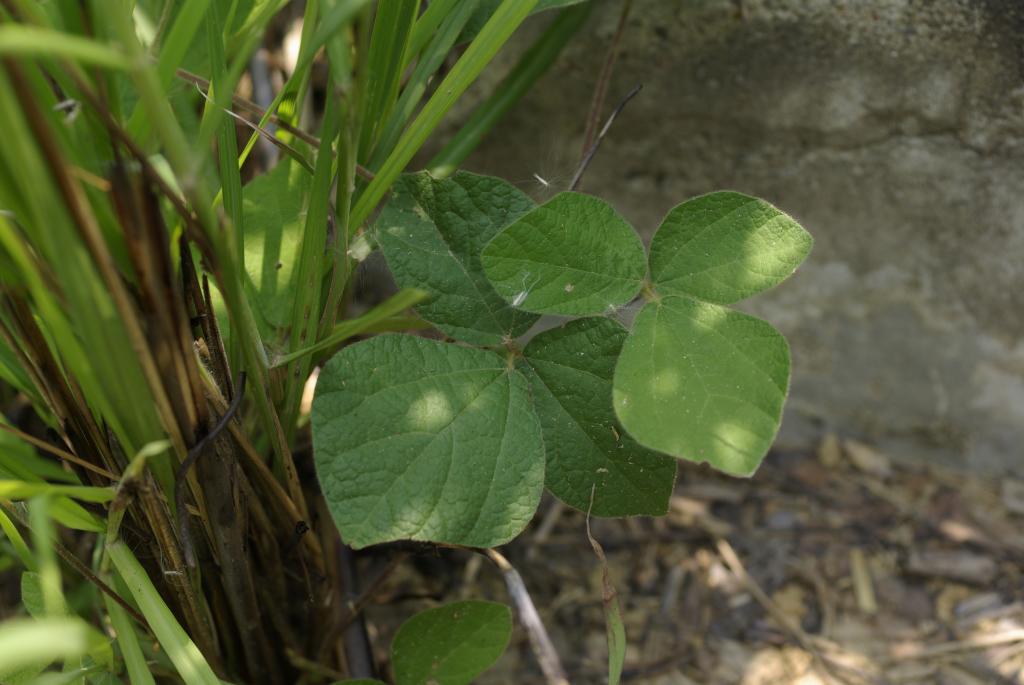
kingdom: Plantae
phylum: Tracheophyta
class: Magnoliopsida
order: Fabales
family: Fabaceae
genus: Rhynchosia
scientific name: Rhynchosia volubilis
